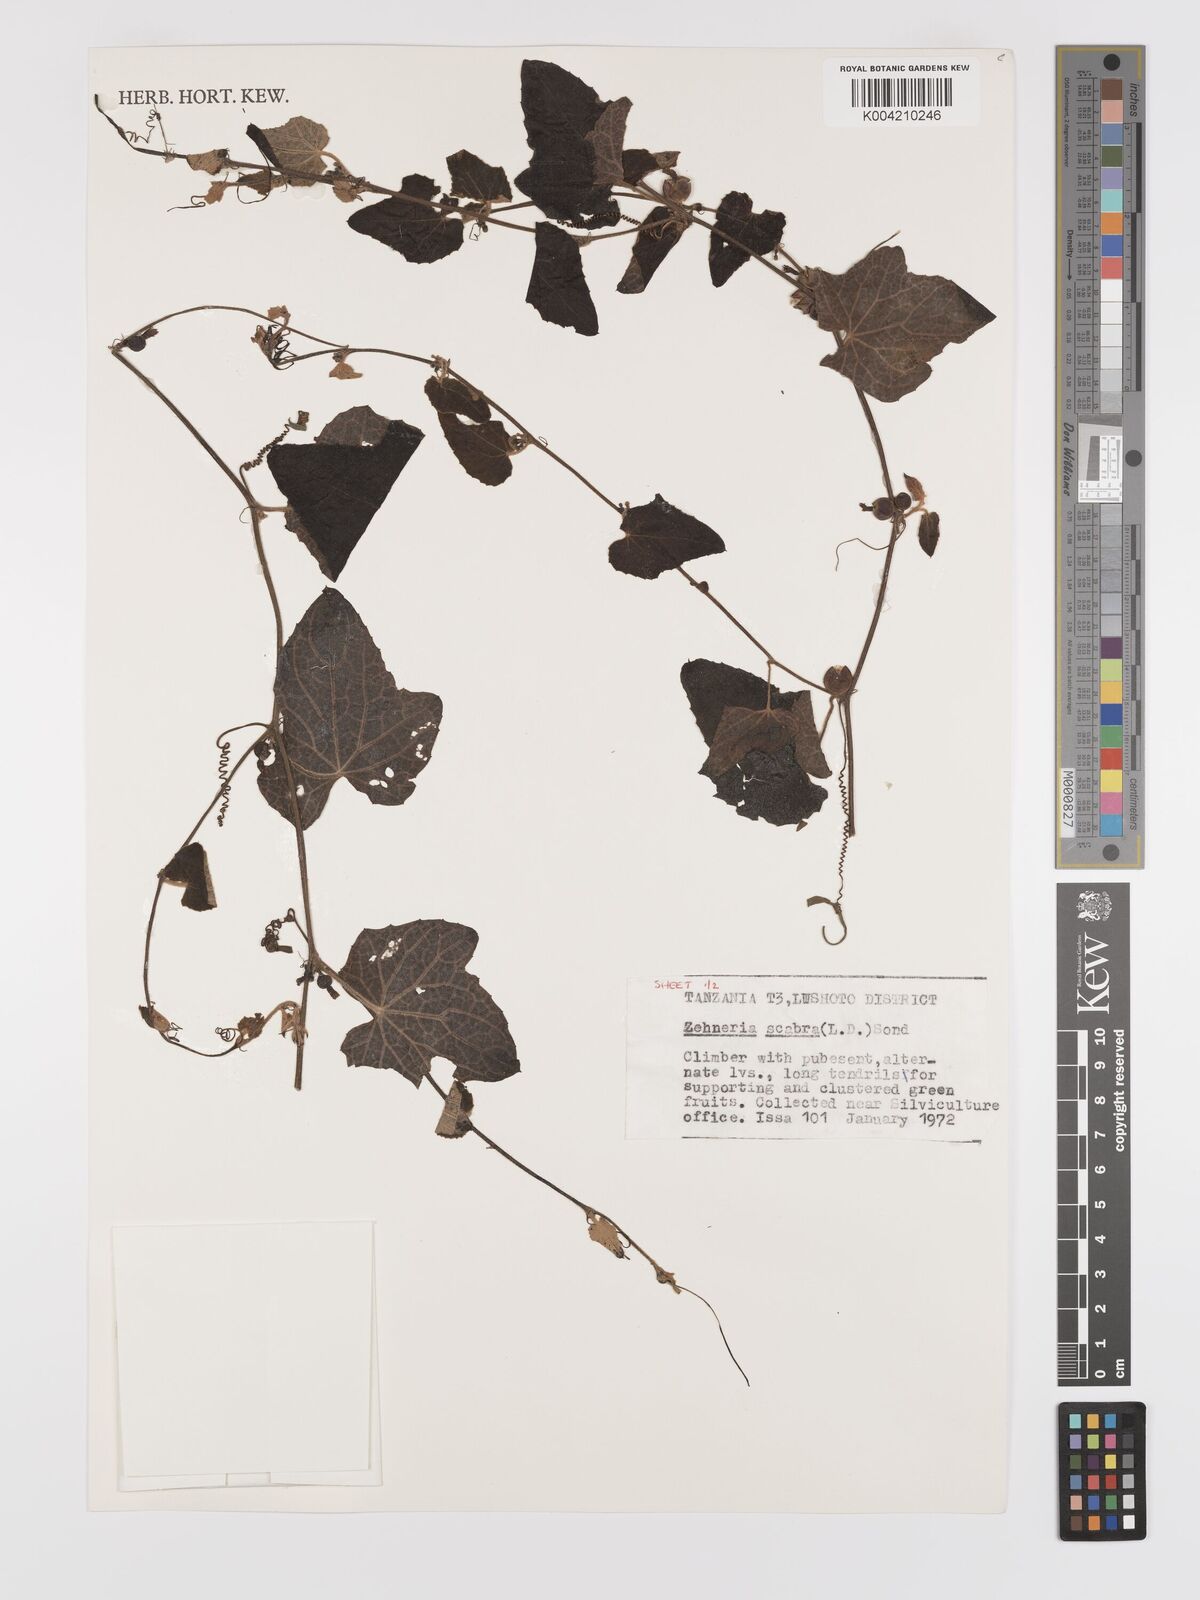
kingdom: Plantae
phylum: Tracheophyta
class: Magnoliopsida
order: Cucurbitales
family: Cucurbitaceae
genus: Zehneria
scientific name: Zehneria scabra
